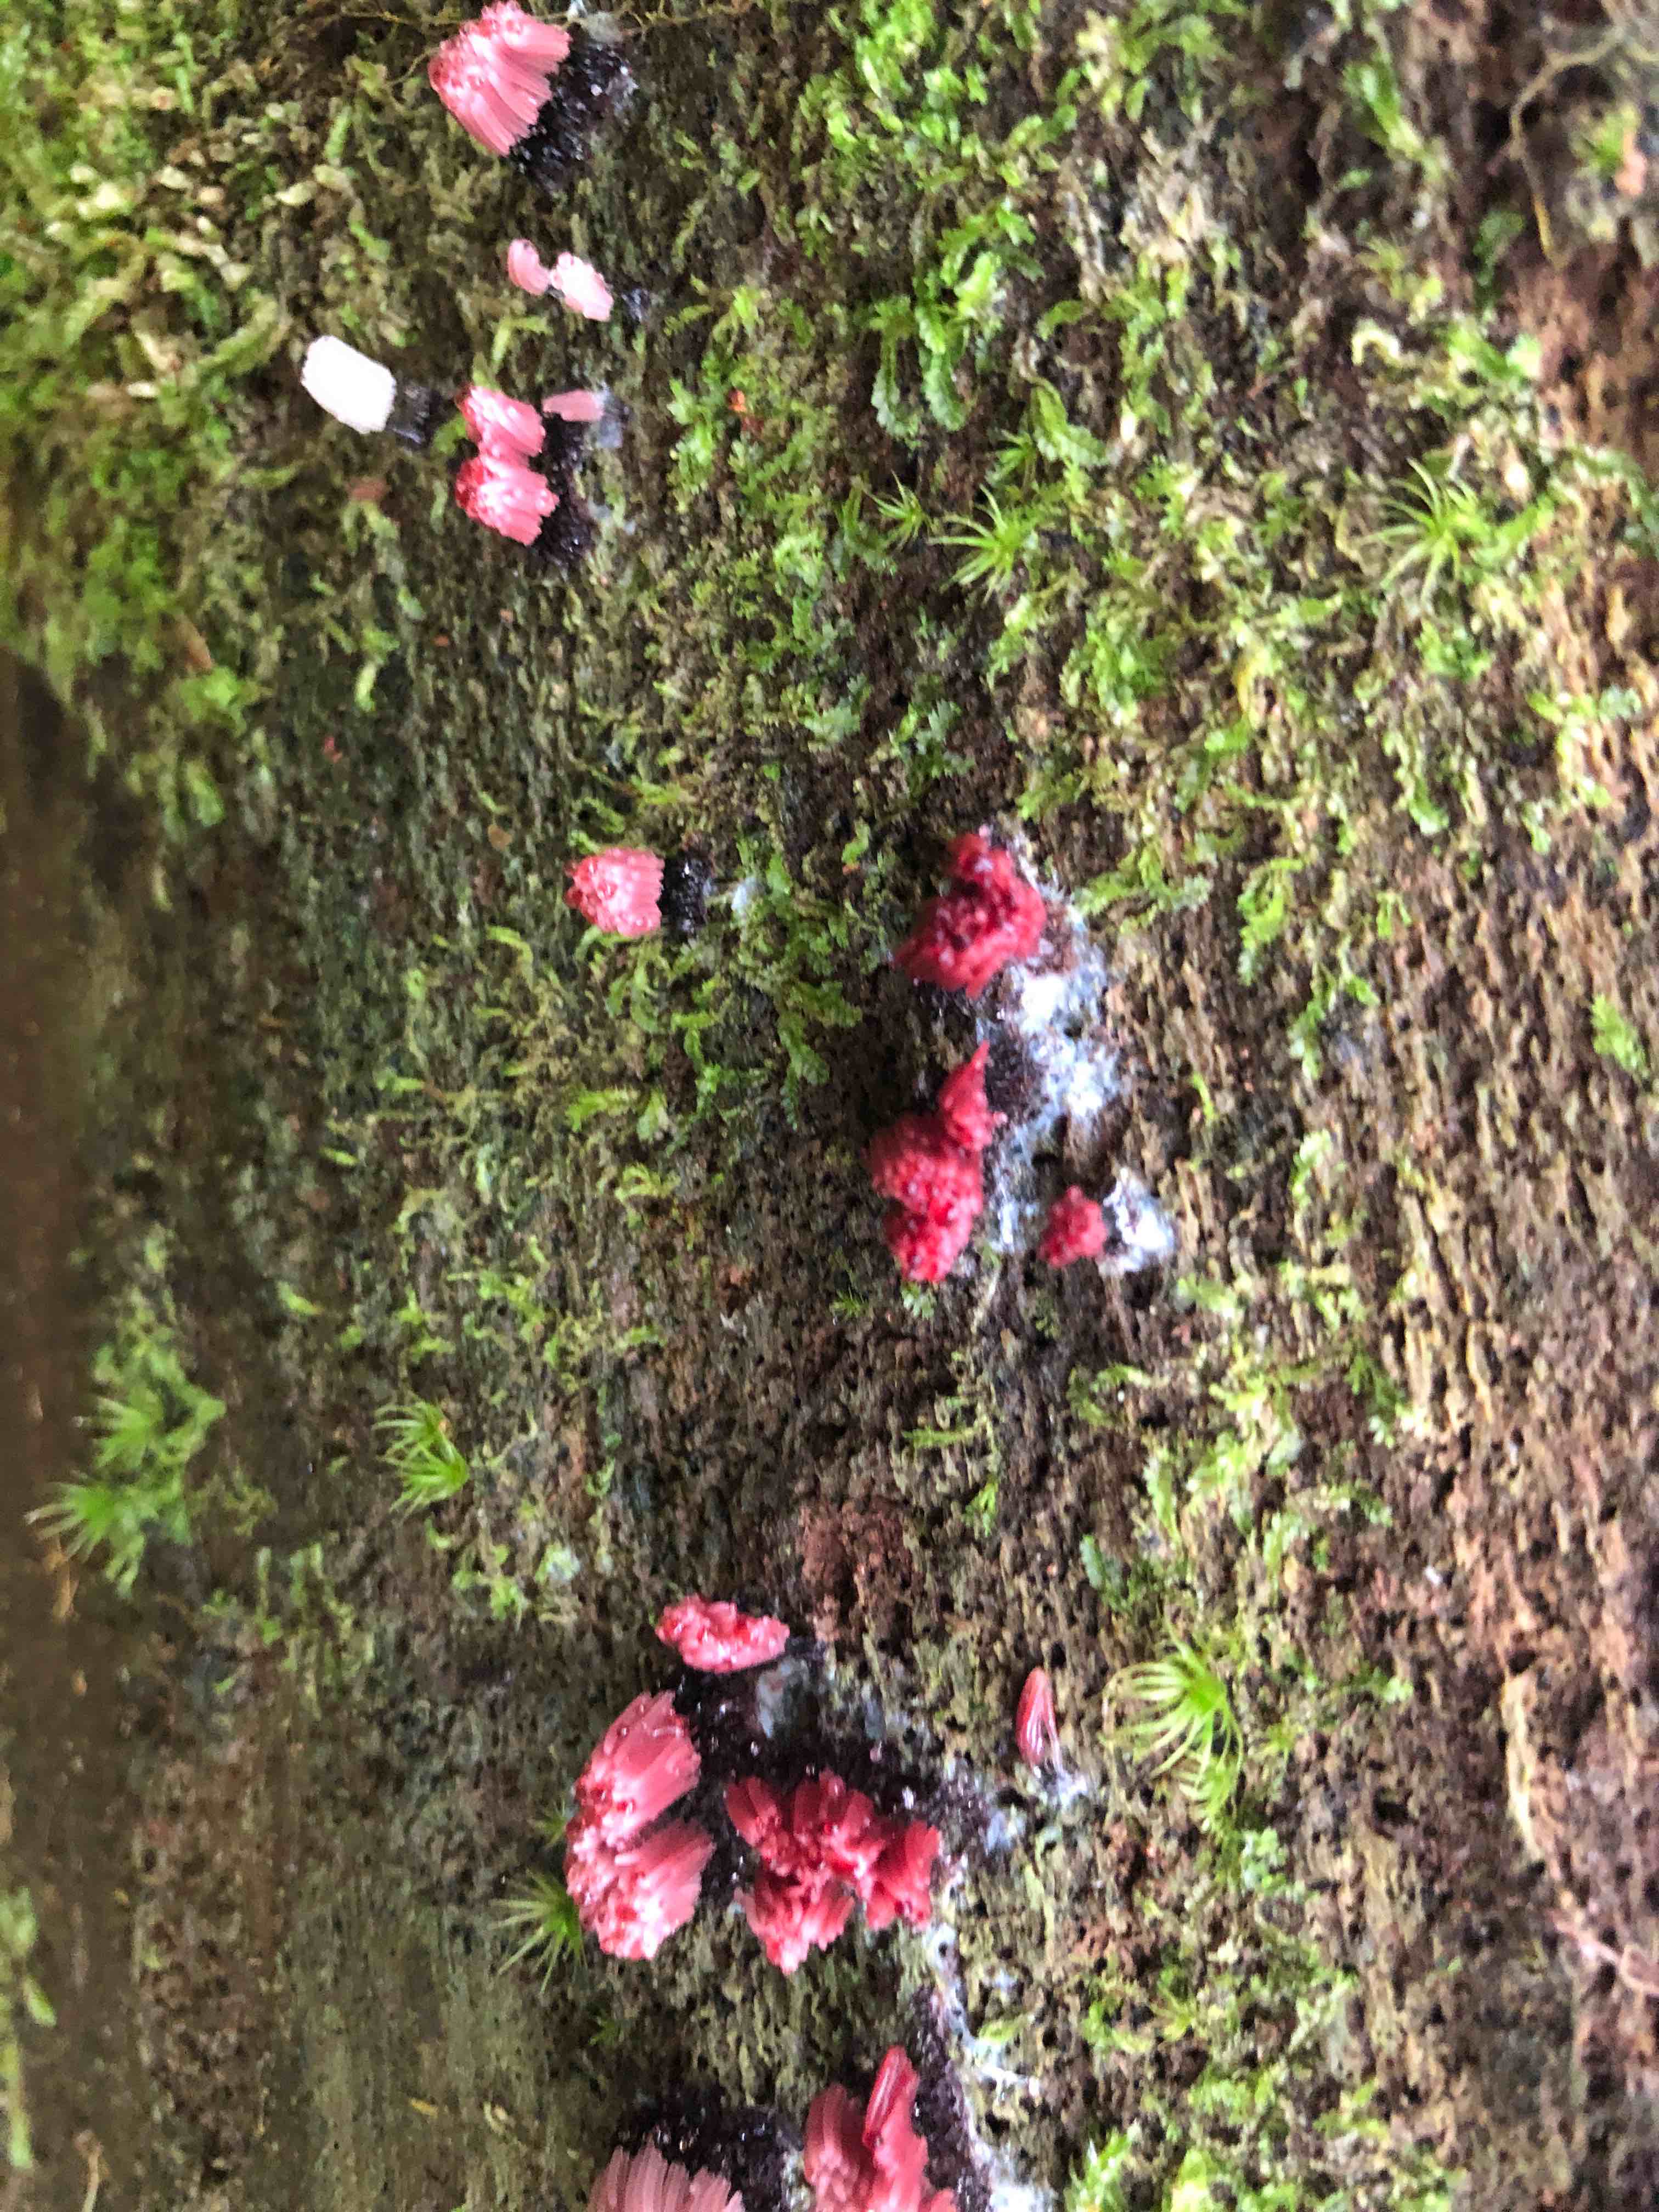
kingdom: Protozoa
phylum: Mycetozoa
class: Myxomycetes
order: Stemonitidales
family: Stemonitidaceae
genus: Stemonitis
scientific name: Stemonitis
